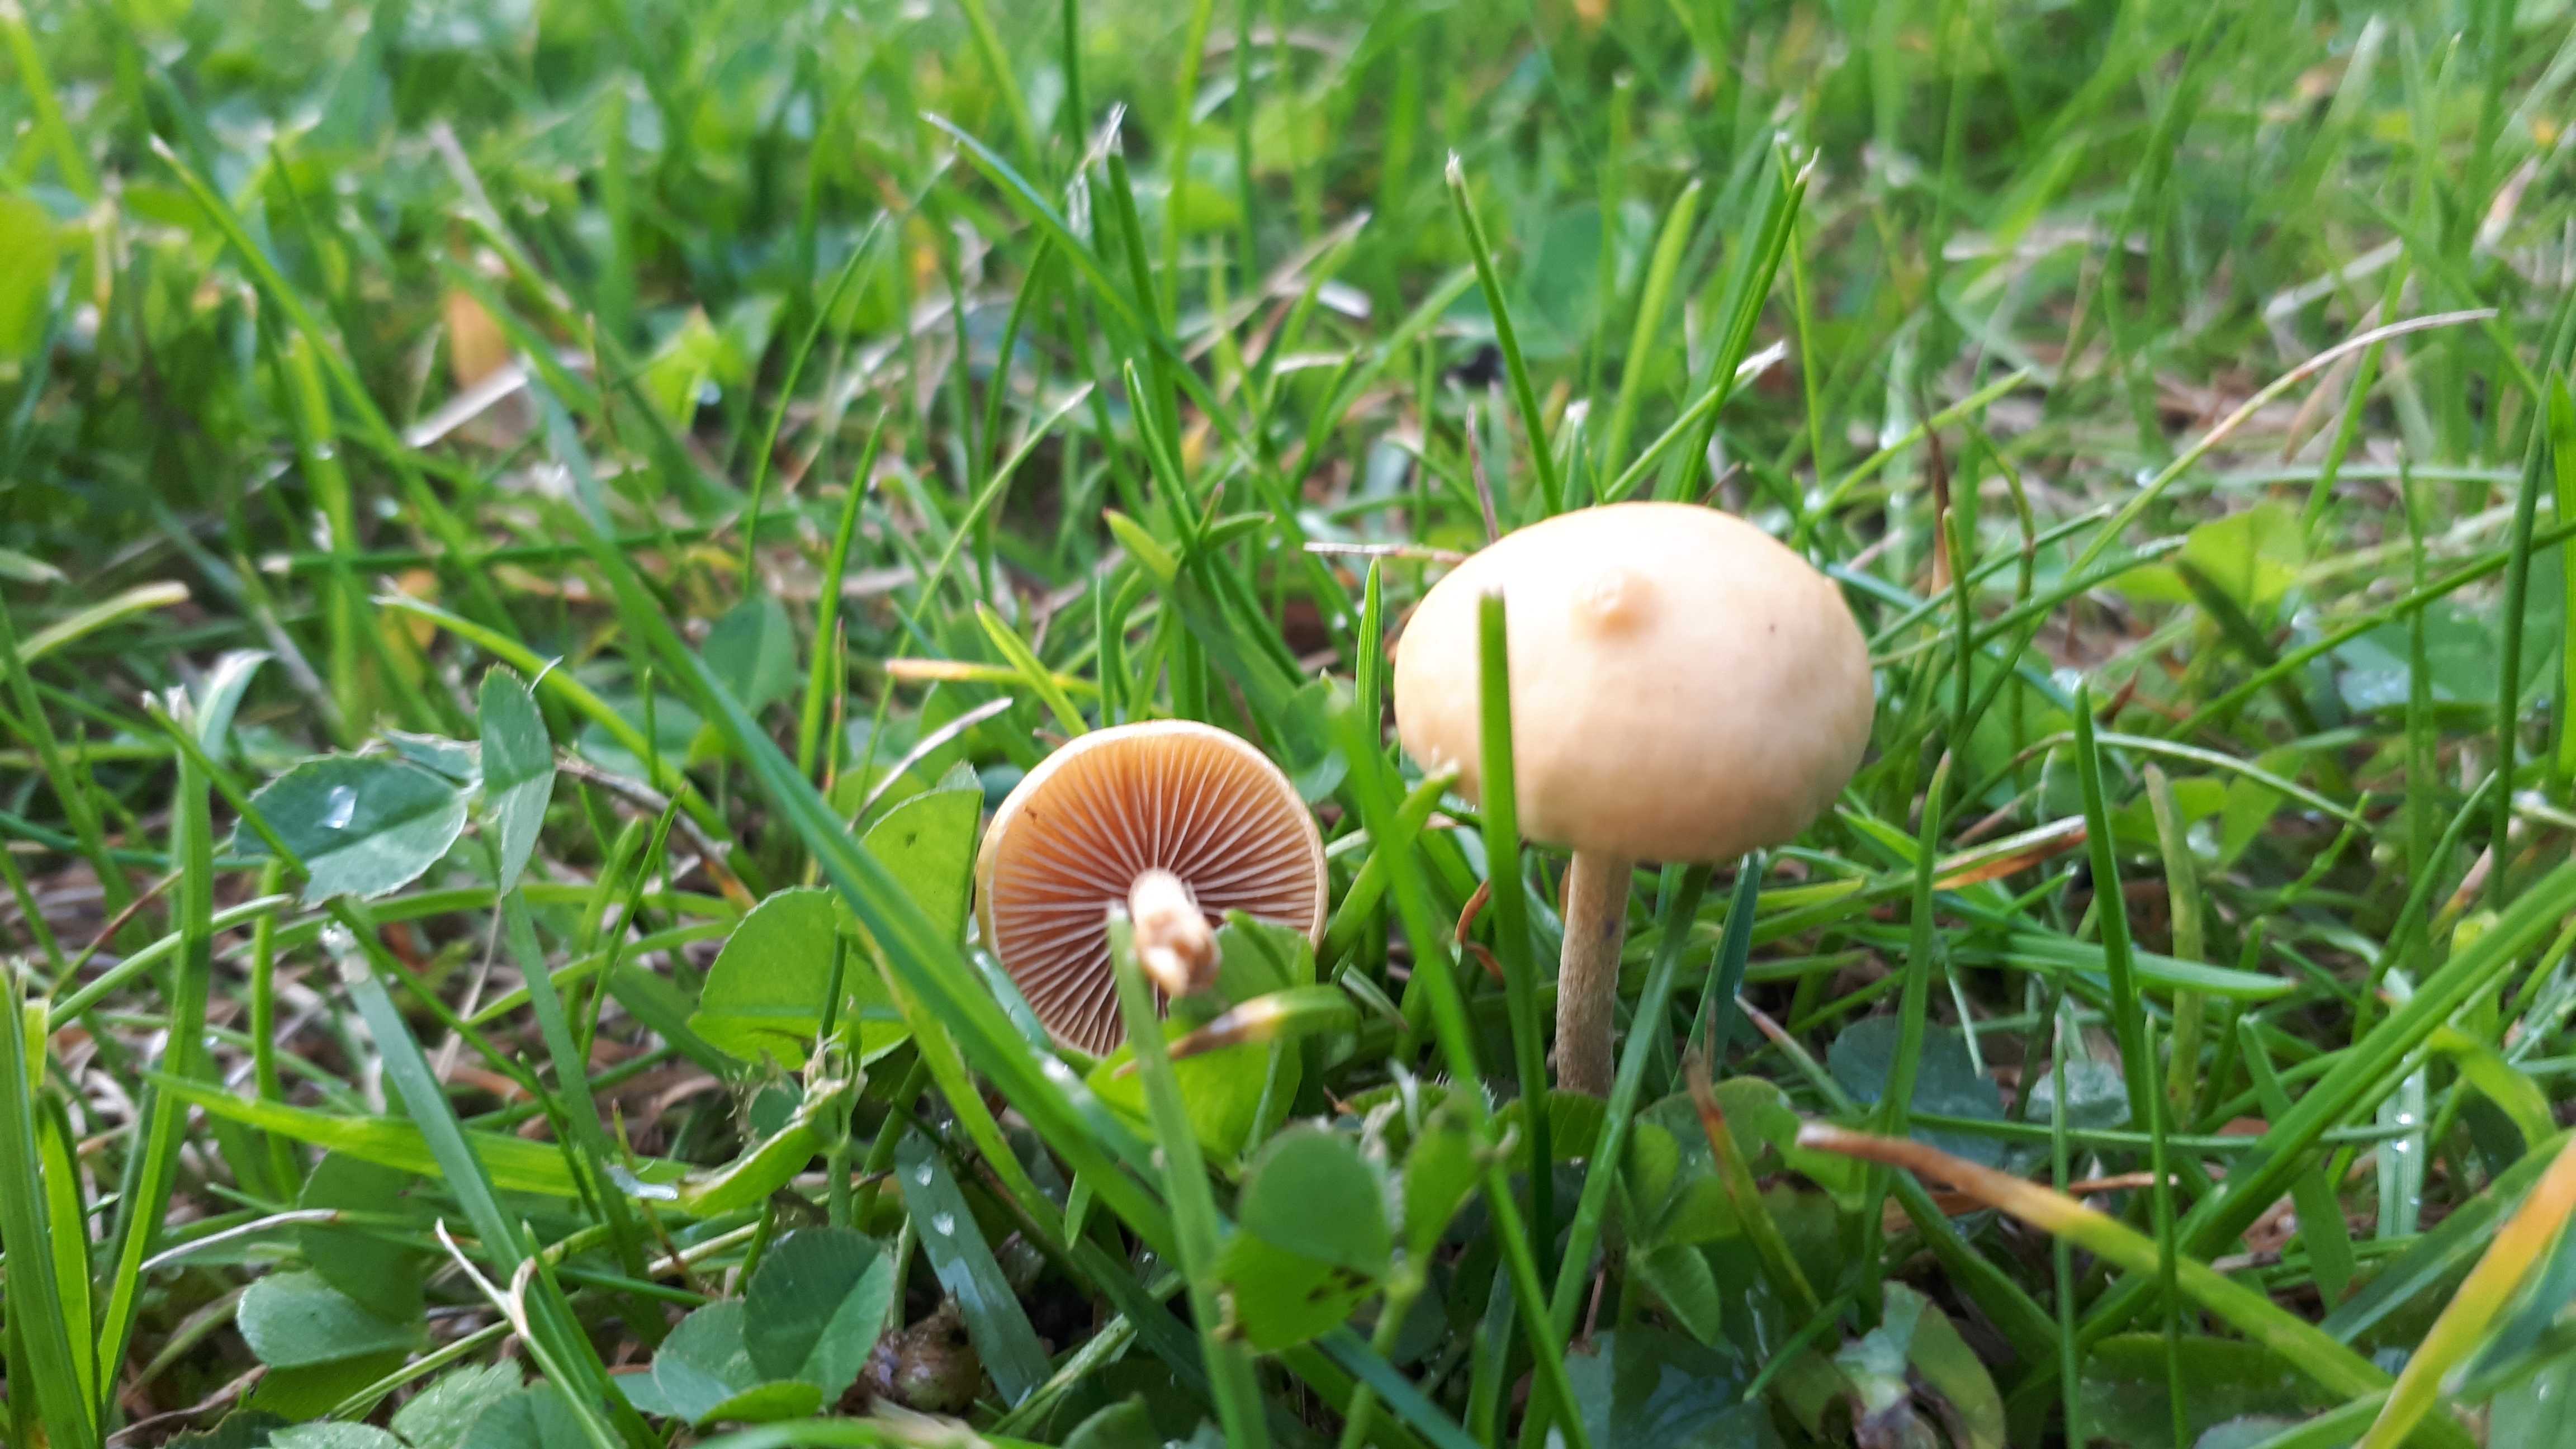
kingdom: Fungi
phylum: Basidiomycota
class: Agaricomycetes
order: Agaricales
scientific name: Agaricales
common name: champignonordenen
